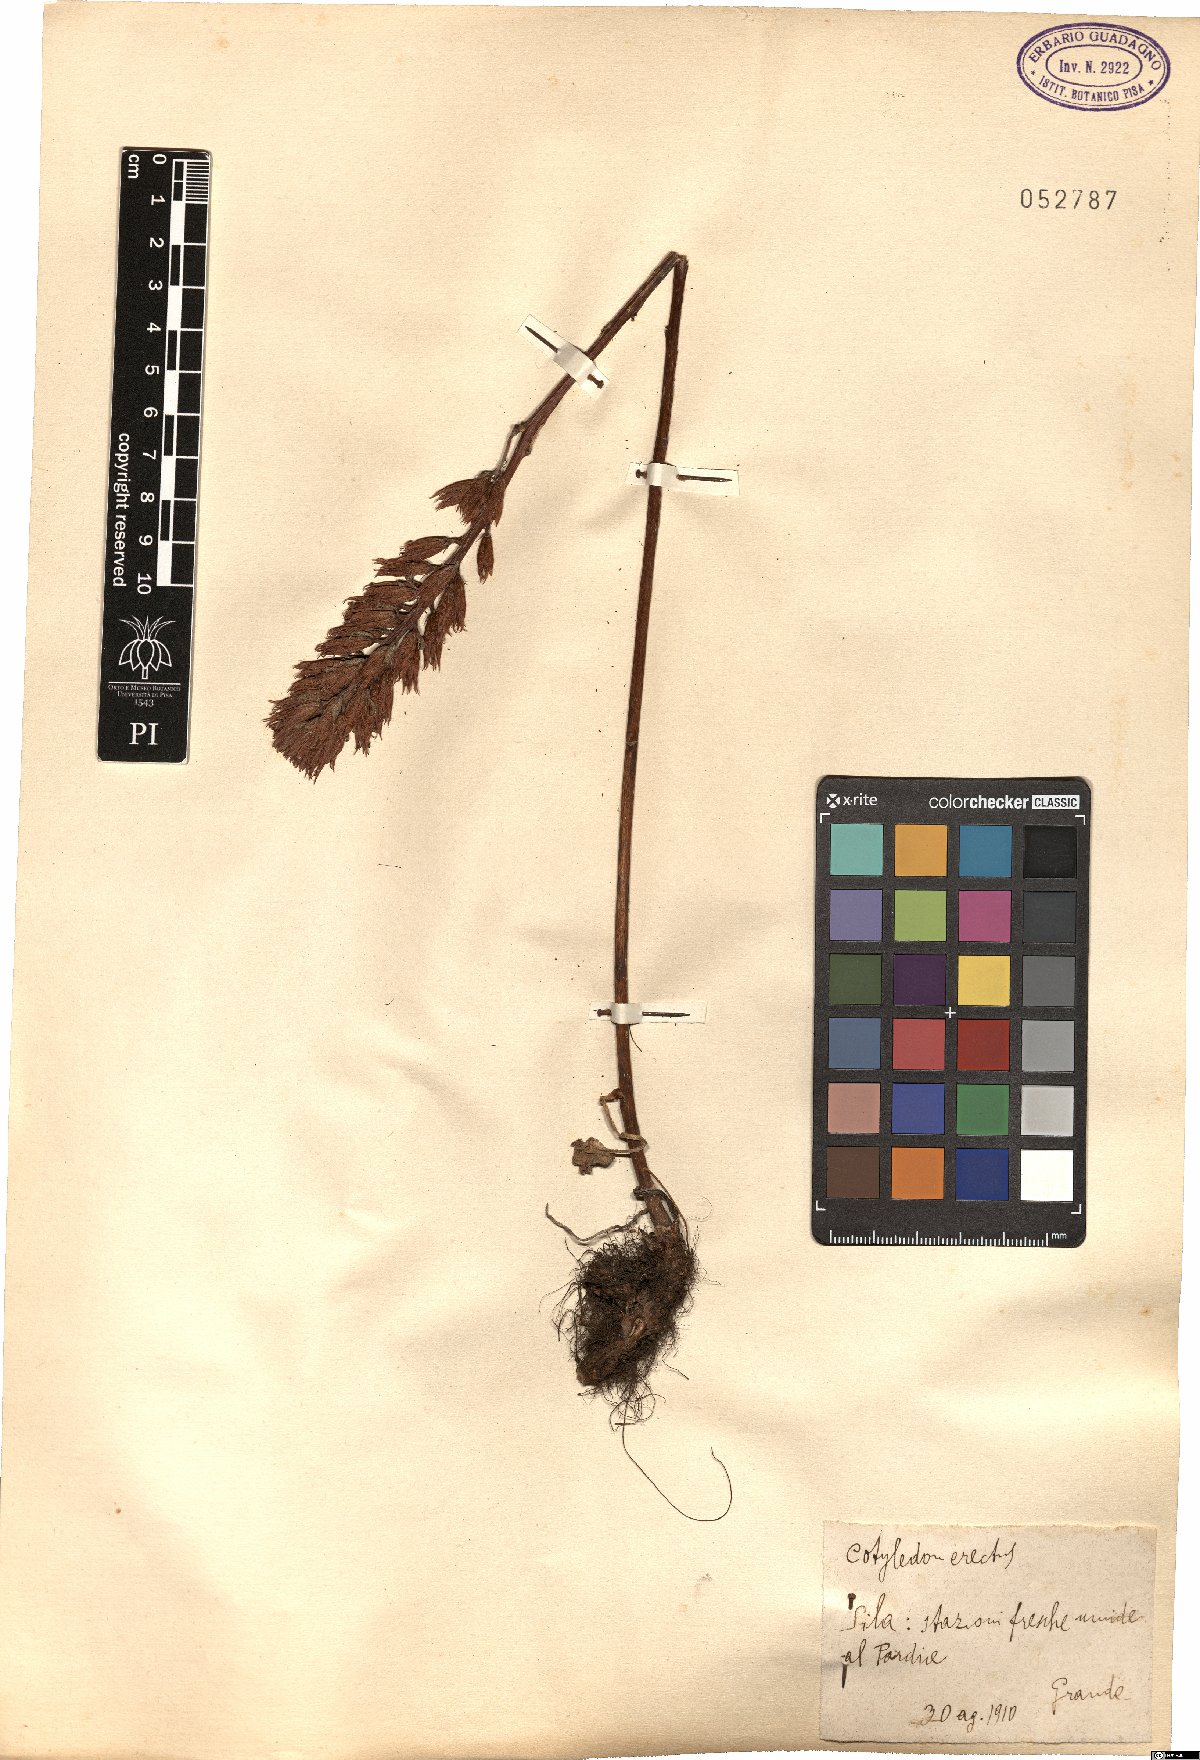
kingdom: Plantae
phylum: Tracheophyta
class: Magnoliopsida
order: Saxifragales
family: Crassulaceae
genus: Umbilicus
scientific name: Umbilicus luteus
